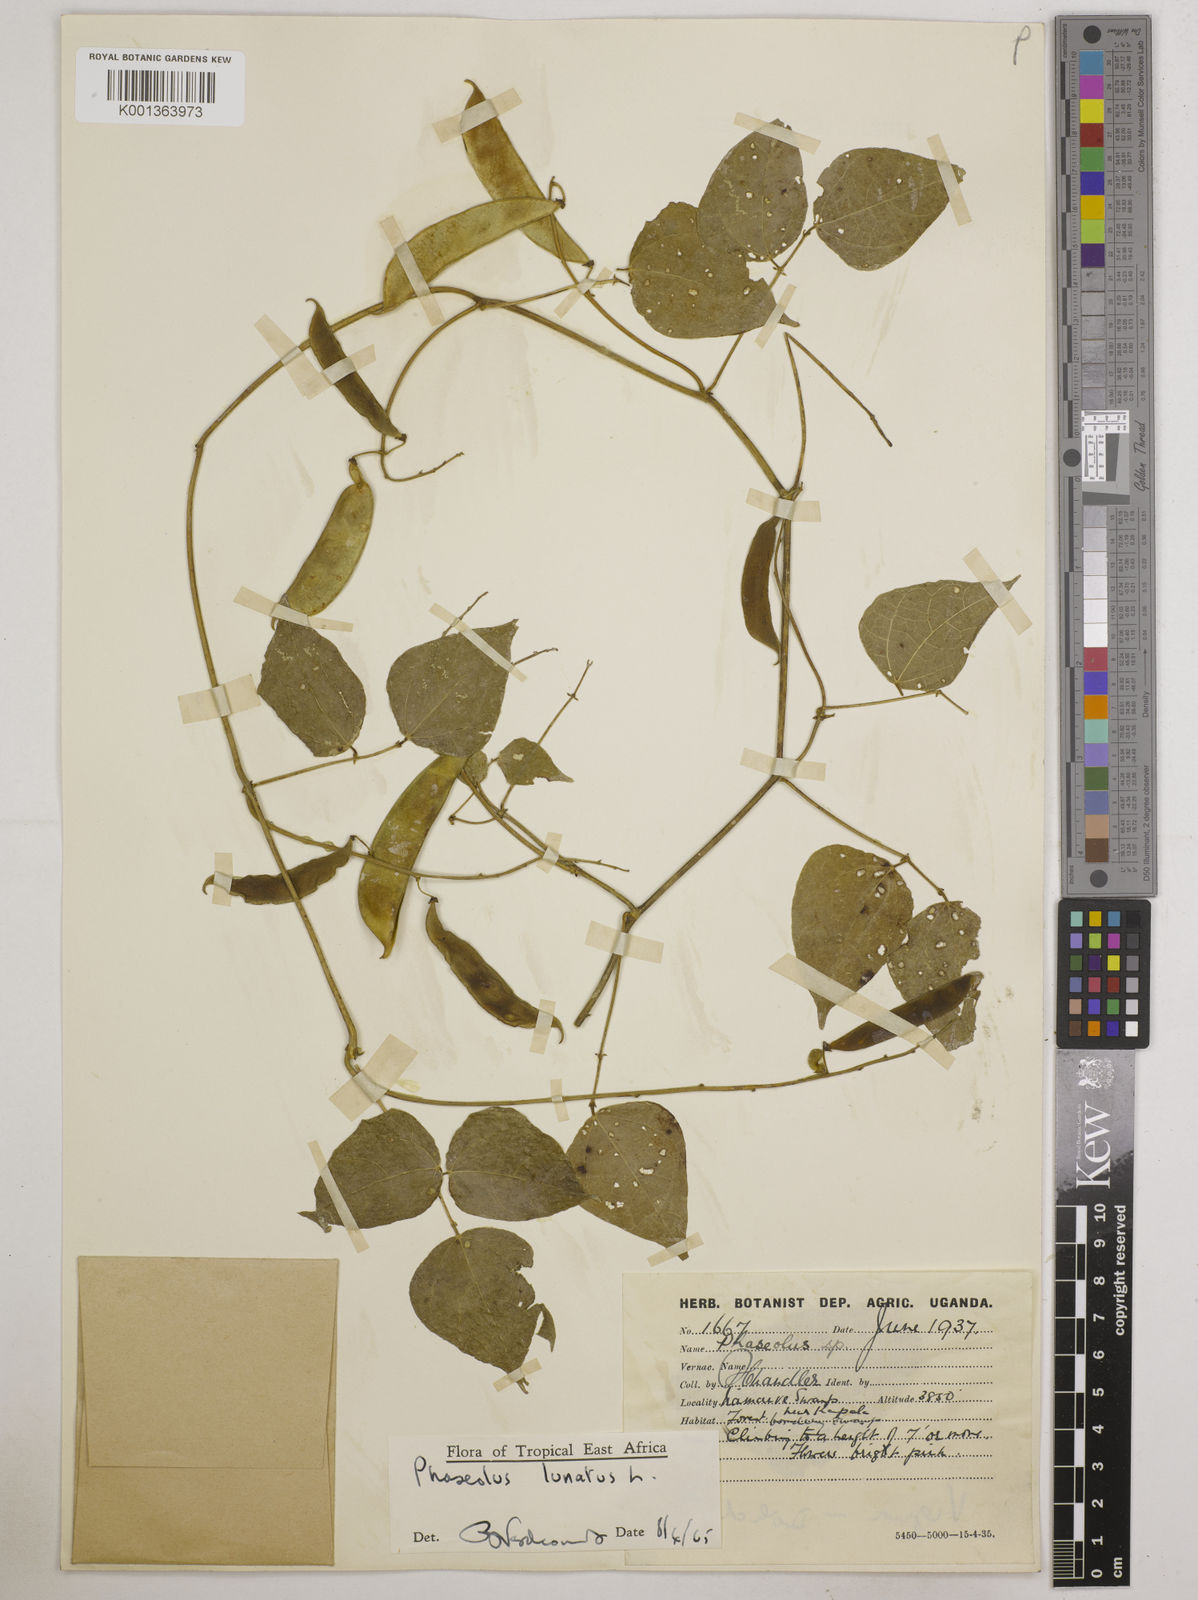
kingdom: Plantae
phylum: Tracheophyta
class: Magnoliopsida
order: Fabales
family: Fabaceae
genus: Phaseolus
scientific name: Phaseolus lunatus
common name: Sieva bean
